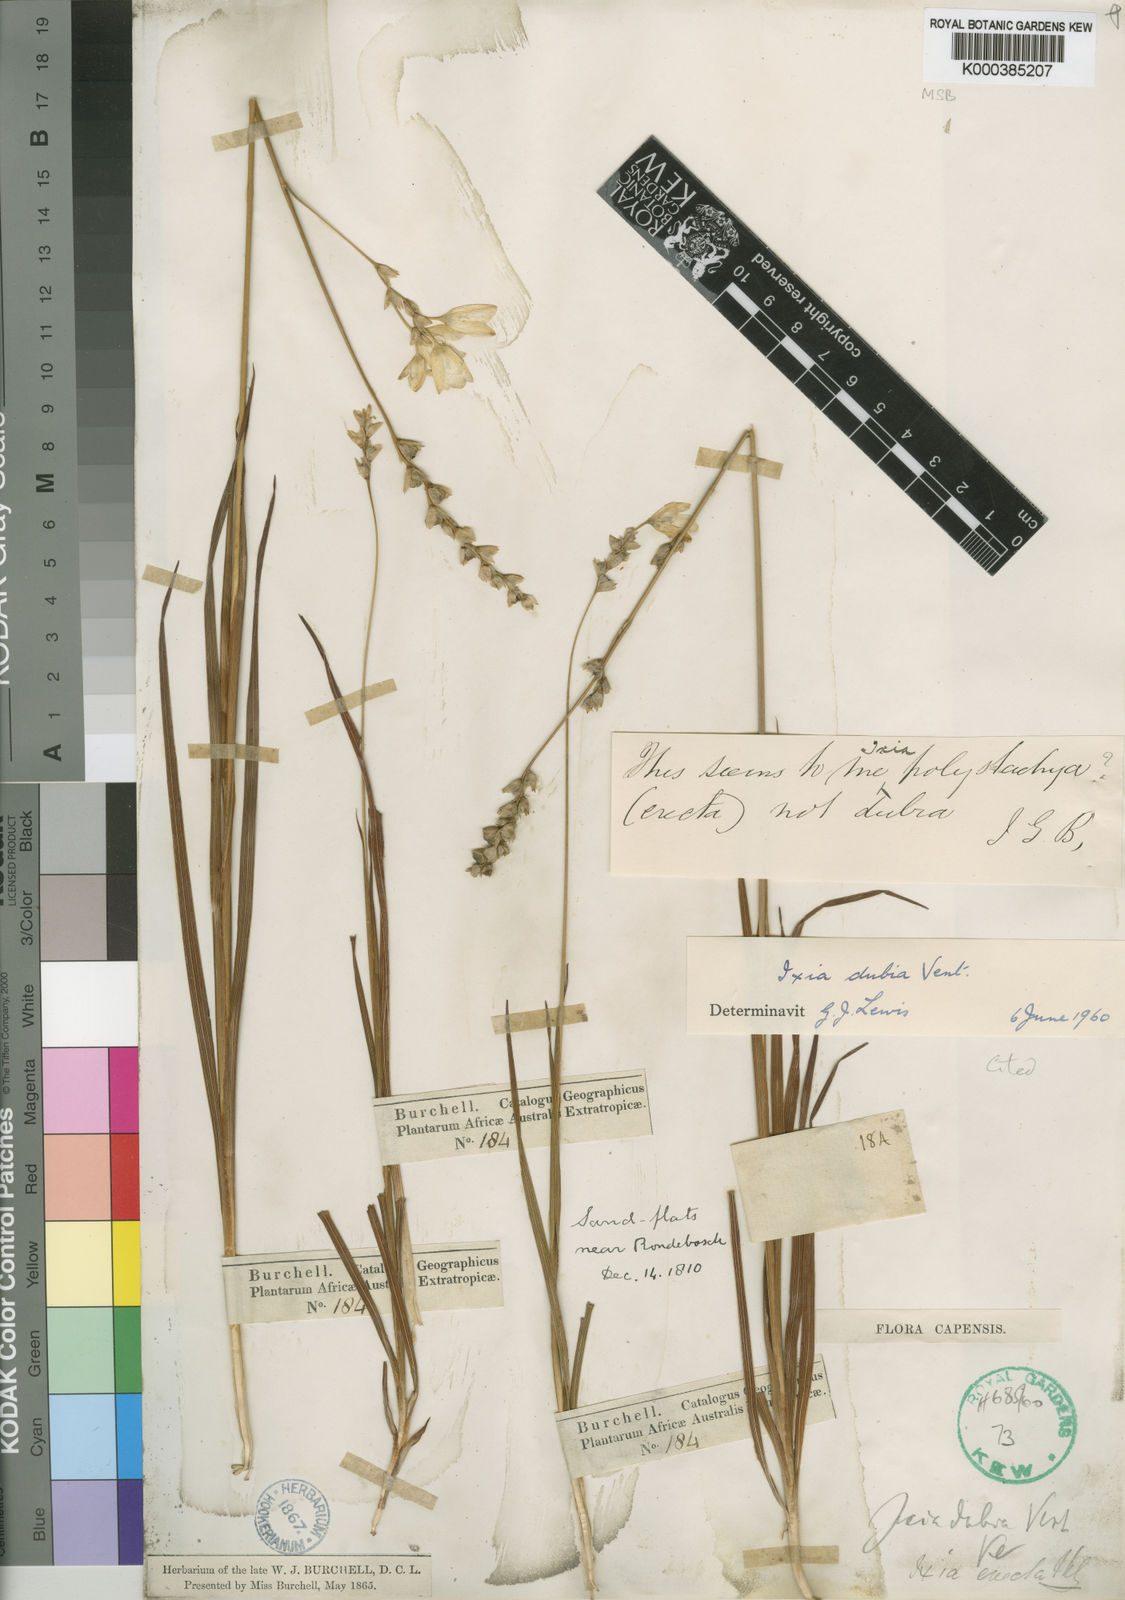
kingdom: Plantae
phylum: Tracheophyta
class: Liliopsida
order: Asparagales
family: Iridaceae
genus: Ixia
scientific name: Ixia dubia
